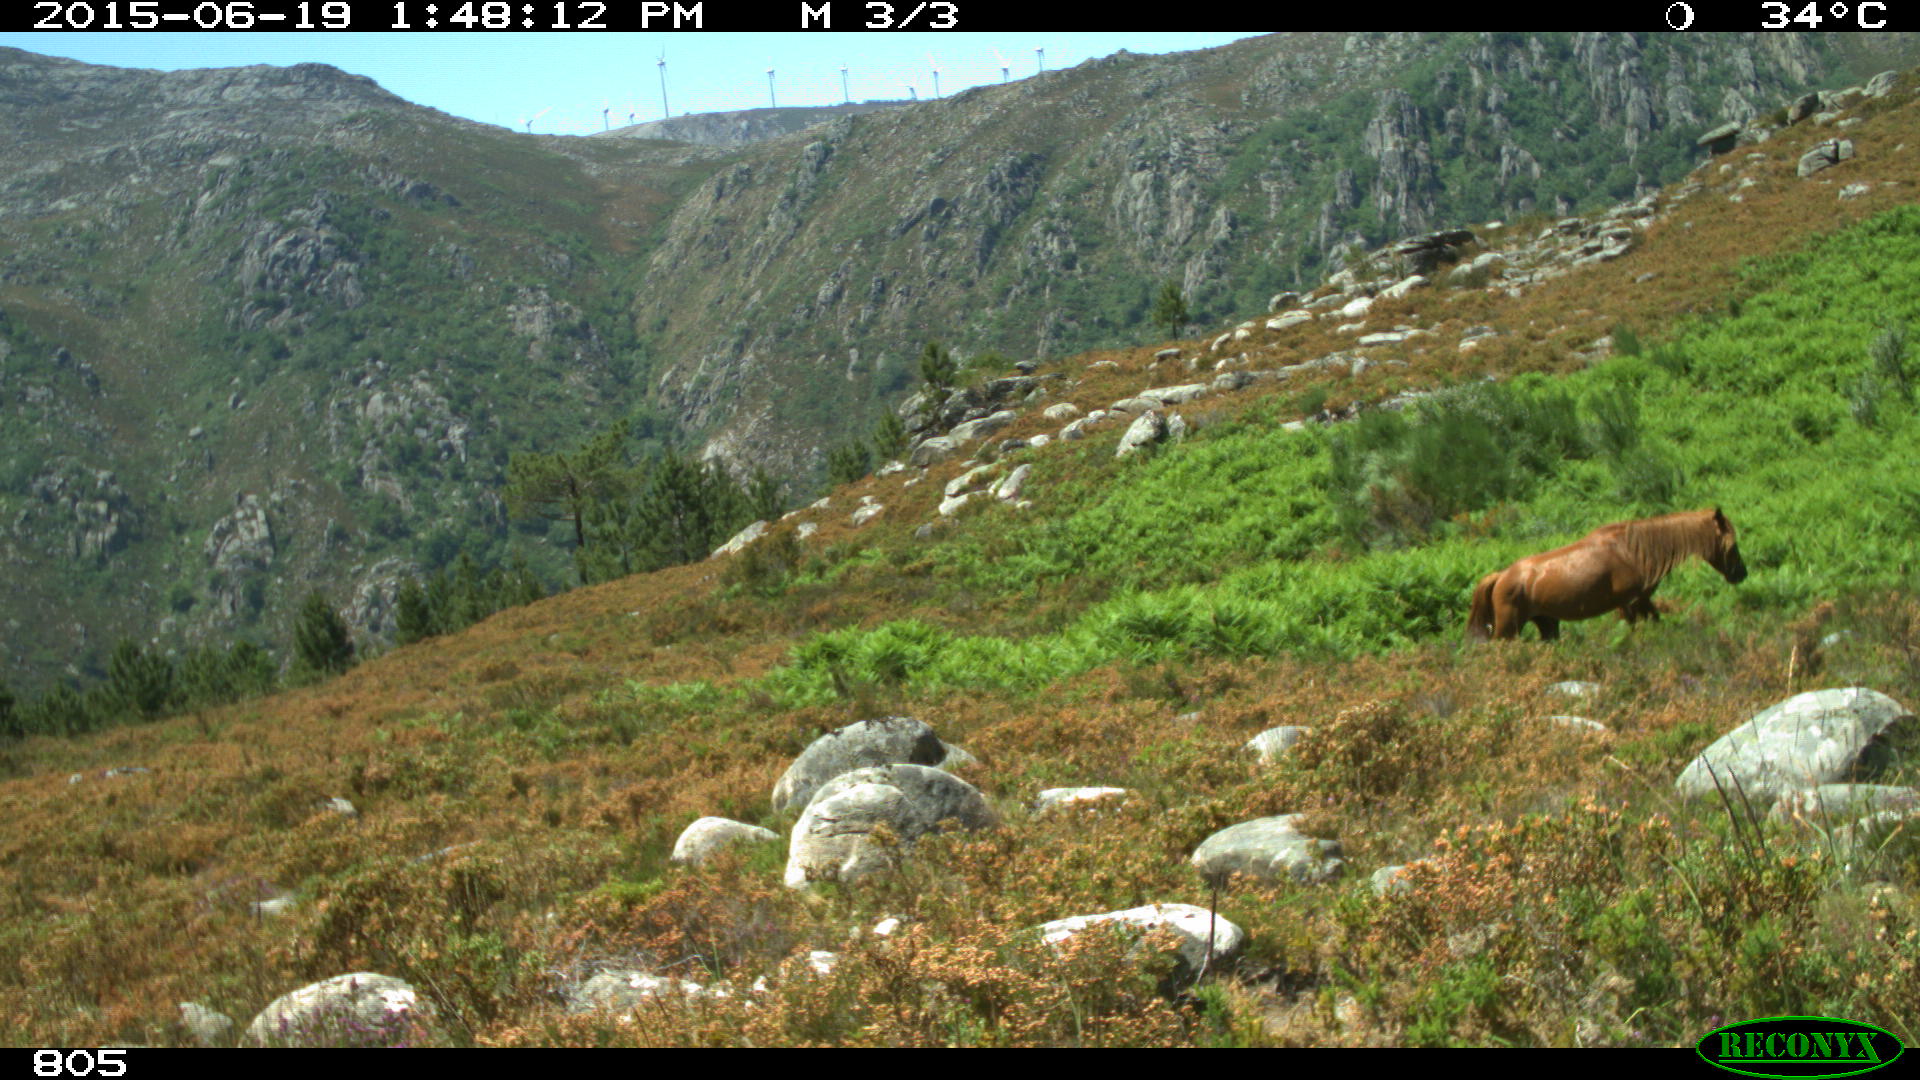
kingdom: Animalia
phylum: Chordata
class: Mammalia
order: Perissodactyla
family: Equidae
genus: Equus
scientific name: Equus caballus
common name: Horse
